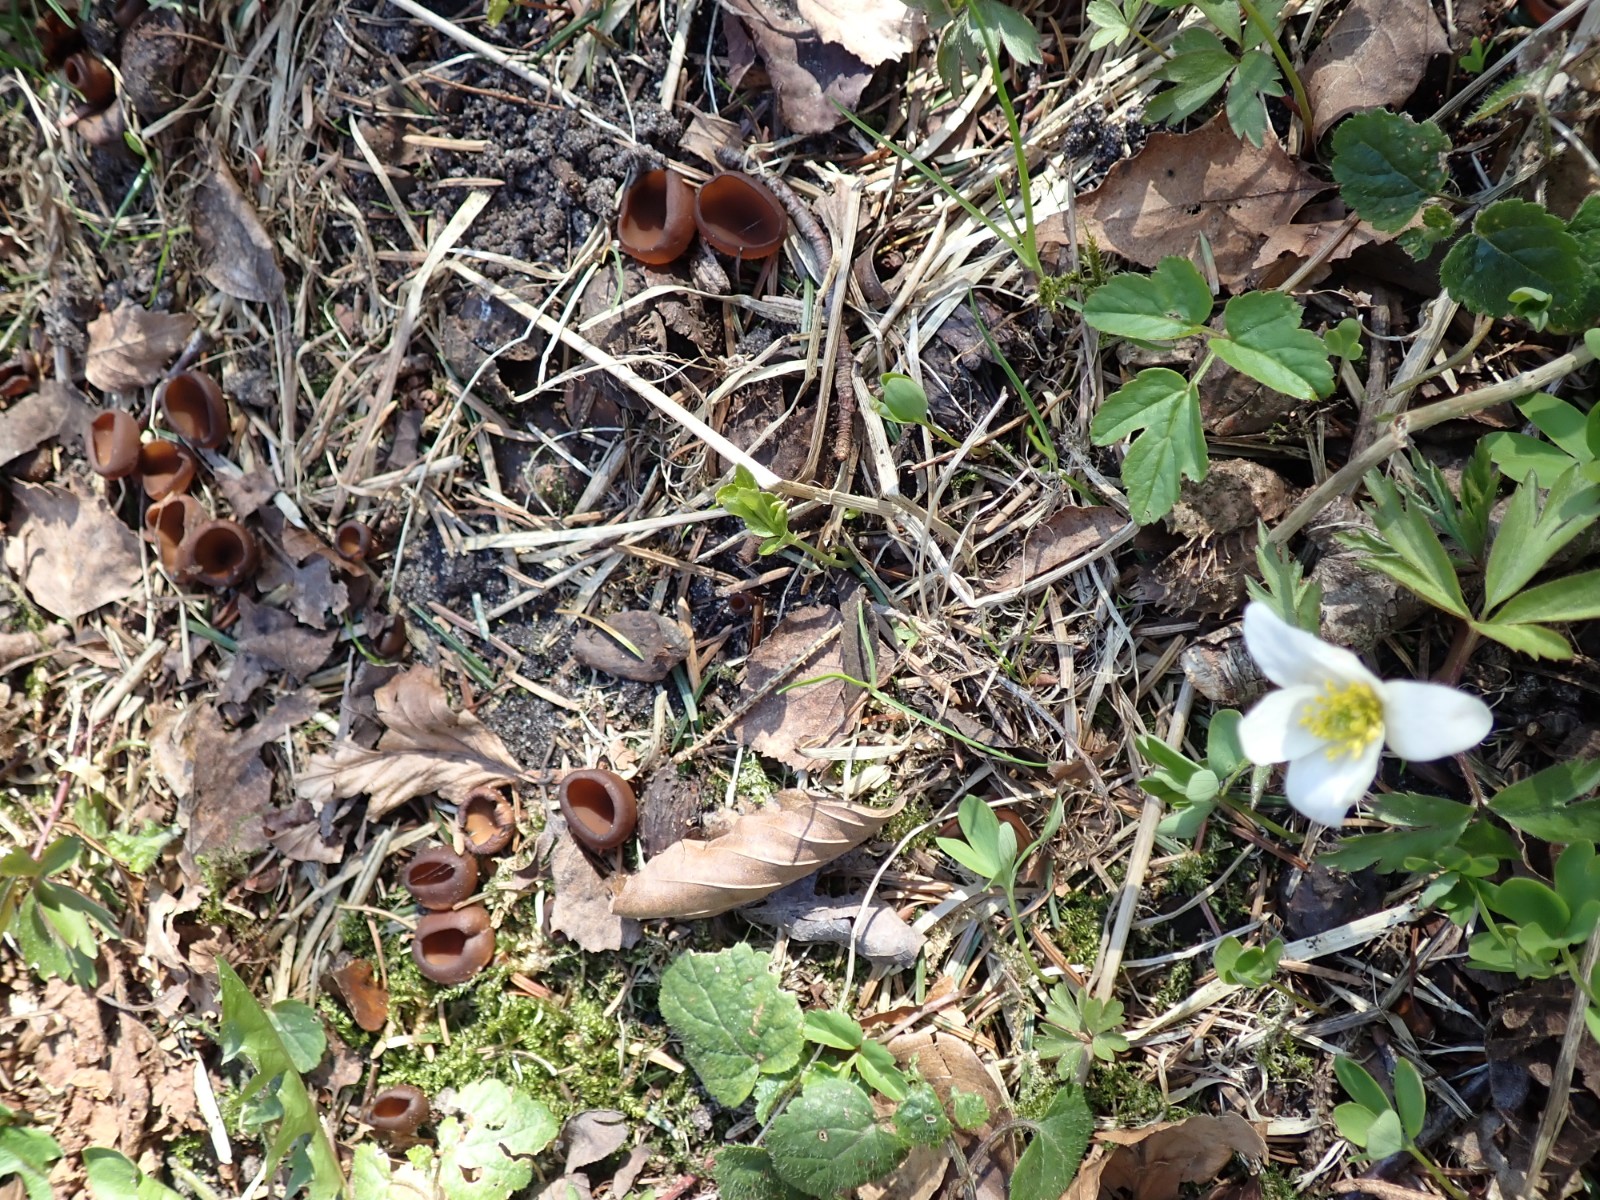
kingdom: Fungi
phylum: Ascomycota
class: Leotiomycetes
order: Helotiales
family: Sclerotiniaceae
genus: Dumontinia
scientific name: Dumontinia tuberosa
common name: anemone-knoldskive
